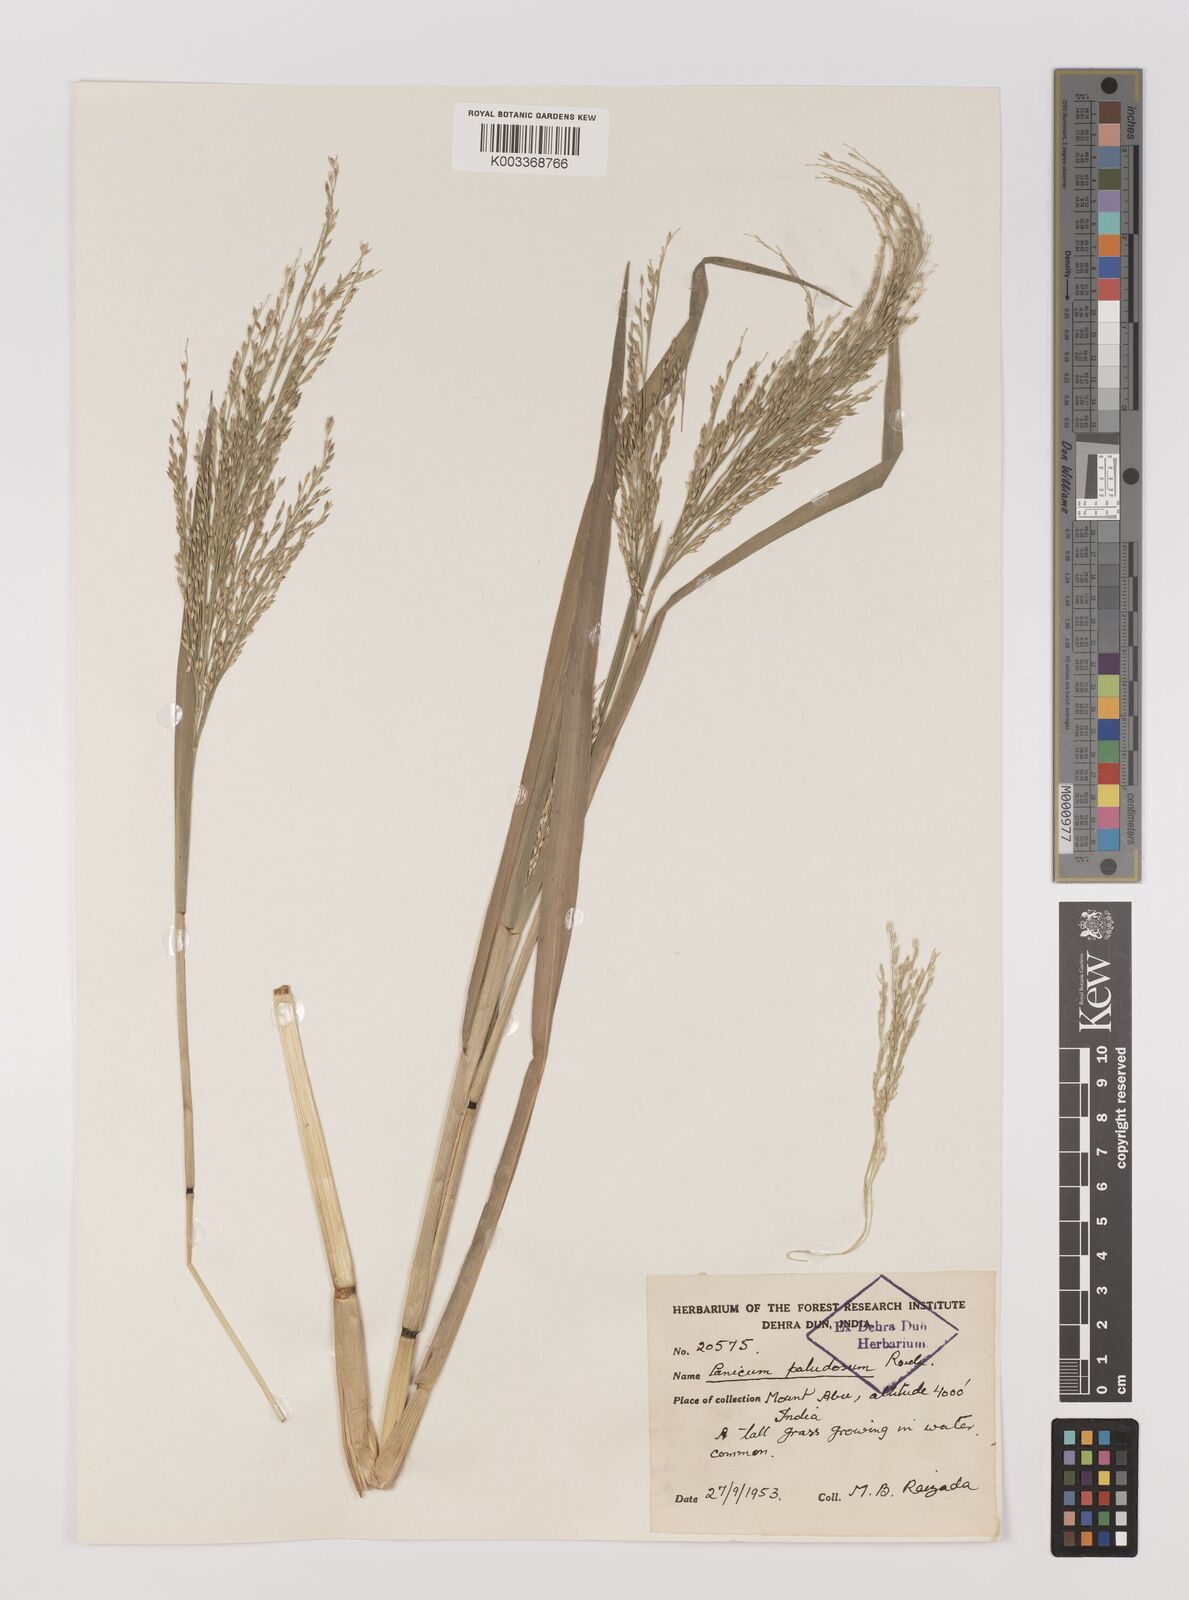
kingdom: Plantae
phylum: Tracheophyta
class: Liliopsida
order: Poales
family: Poaceae
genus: Louisiella
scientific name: Louisiella paludosa
